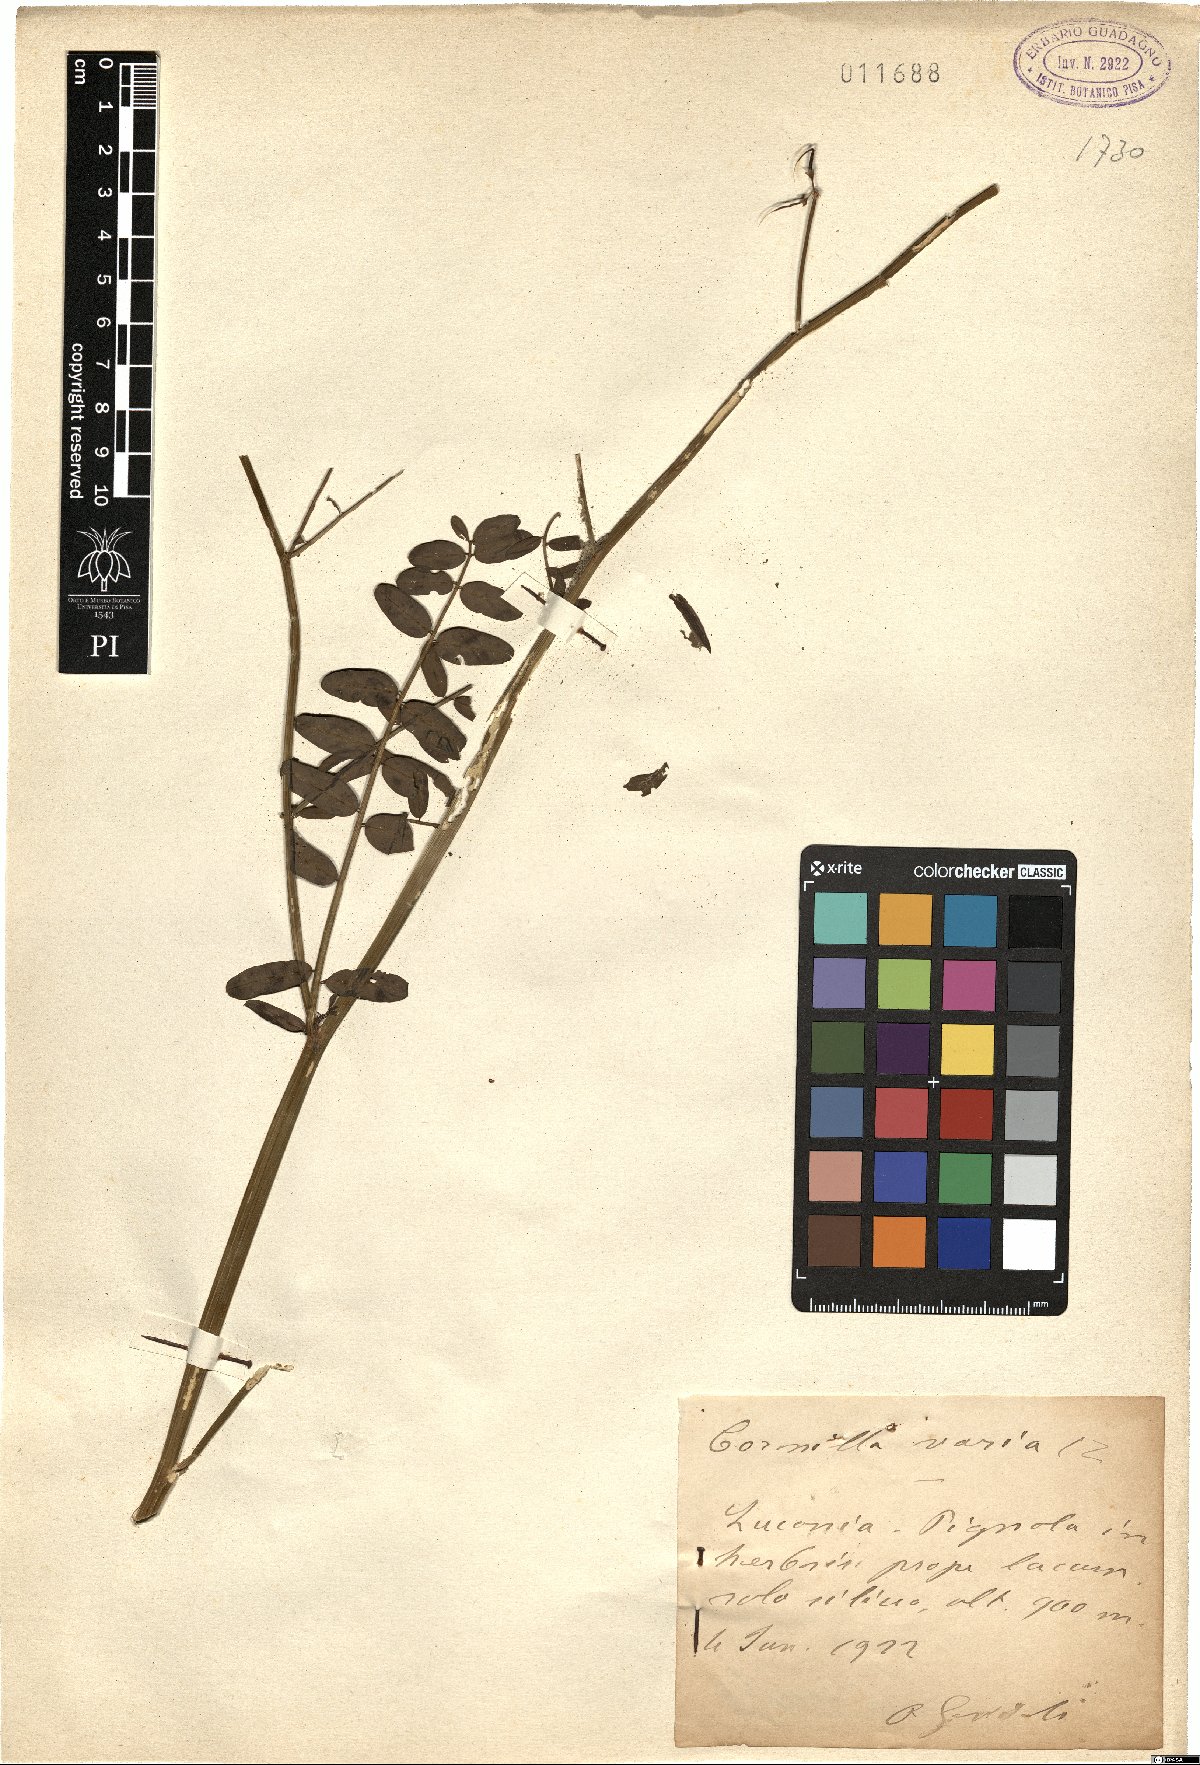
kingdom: Plantae
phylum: Tracheophyta
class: Magnoliopsida
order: Fabales
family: Fabaceae
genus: Coronilla
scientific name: Coronilla varia
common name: Crownvetch
